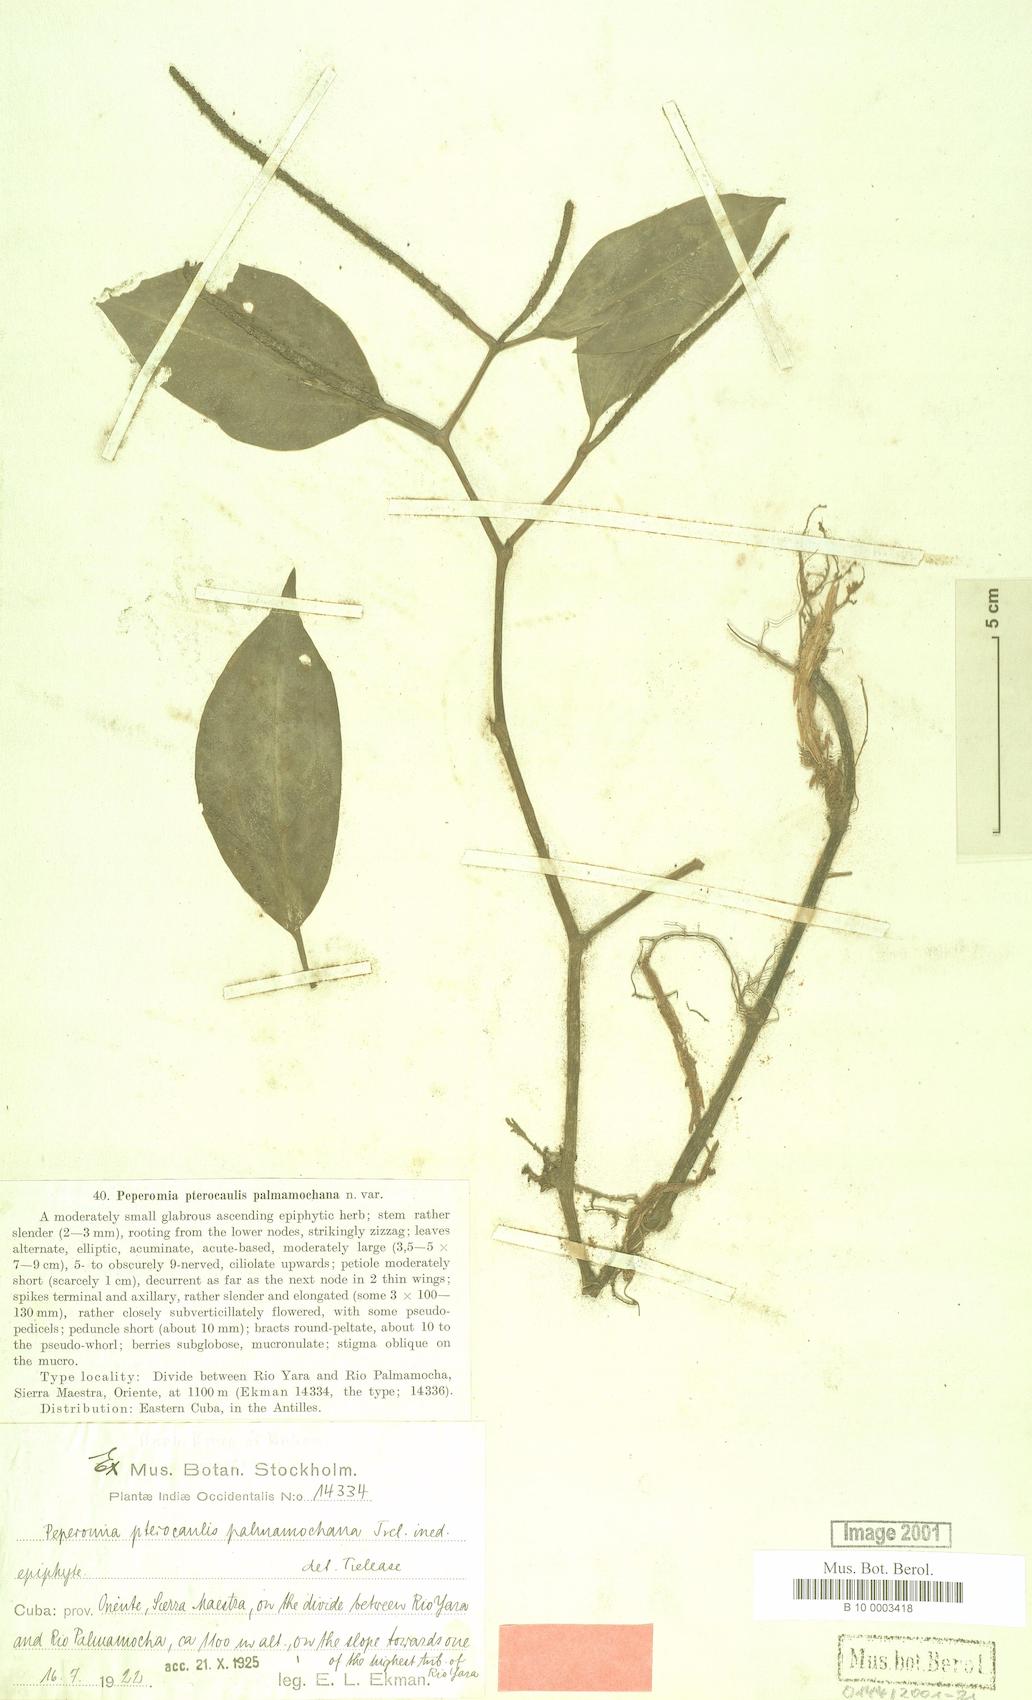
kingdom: Plantae
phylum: Tracheophyta
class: Magnoliopsida
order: Piperales
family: Piperaceae
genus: Peperomia
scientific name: Peperomia alata
